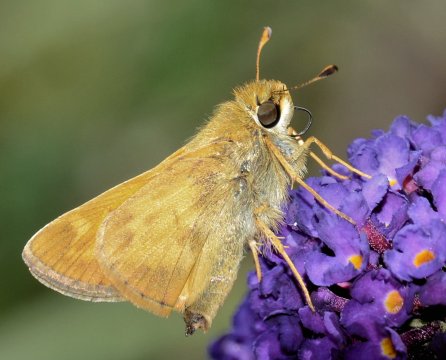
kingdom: Animalia
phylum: Arthropoda
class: Insecta
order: Lepidoptera
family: Hesperiidae
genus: Atalopedes
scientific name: Atalopedes campestris
